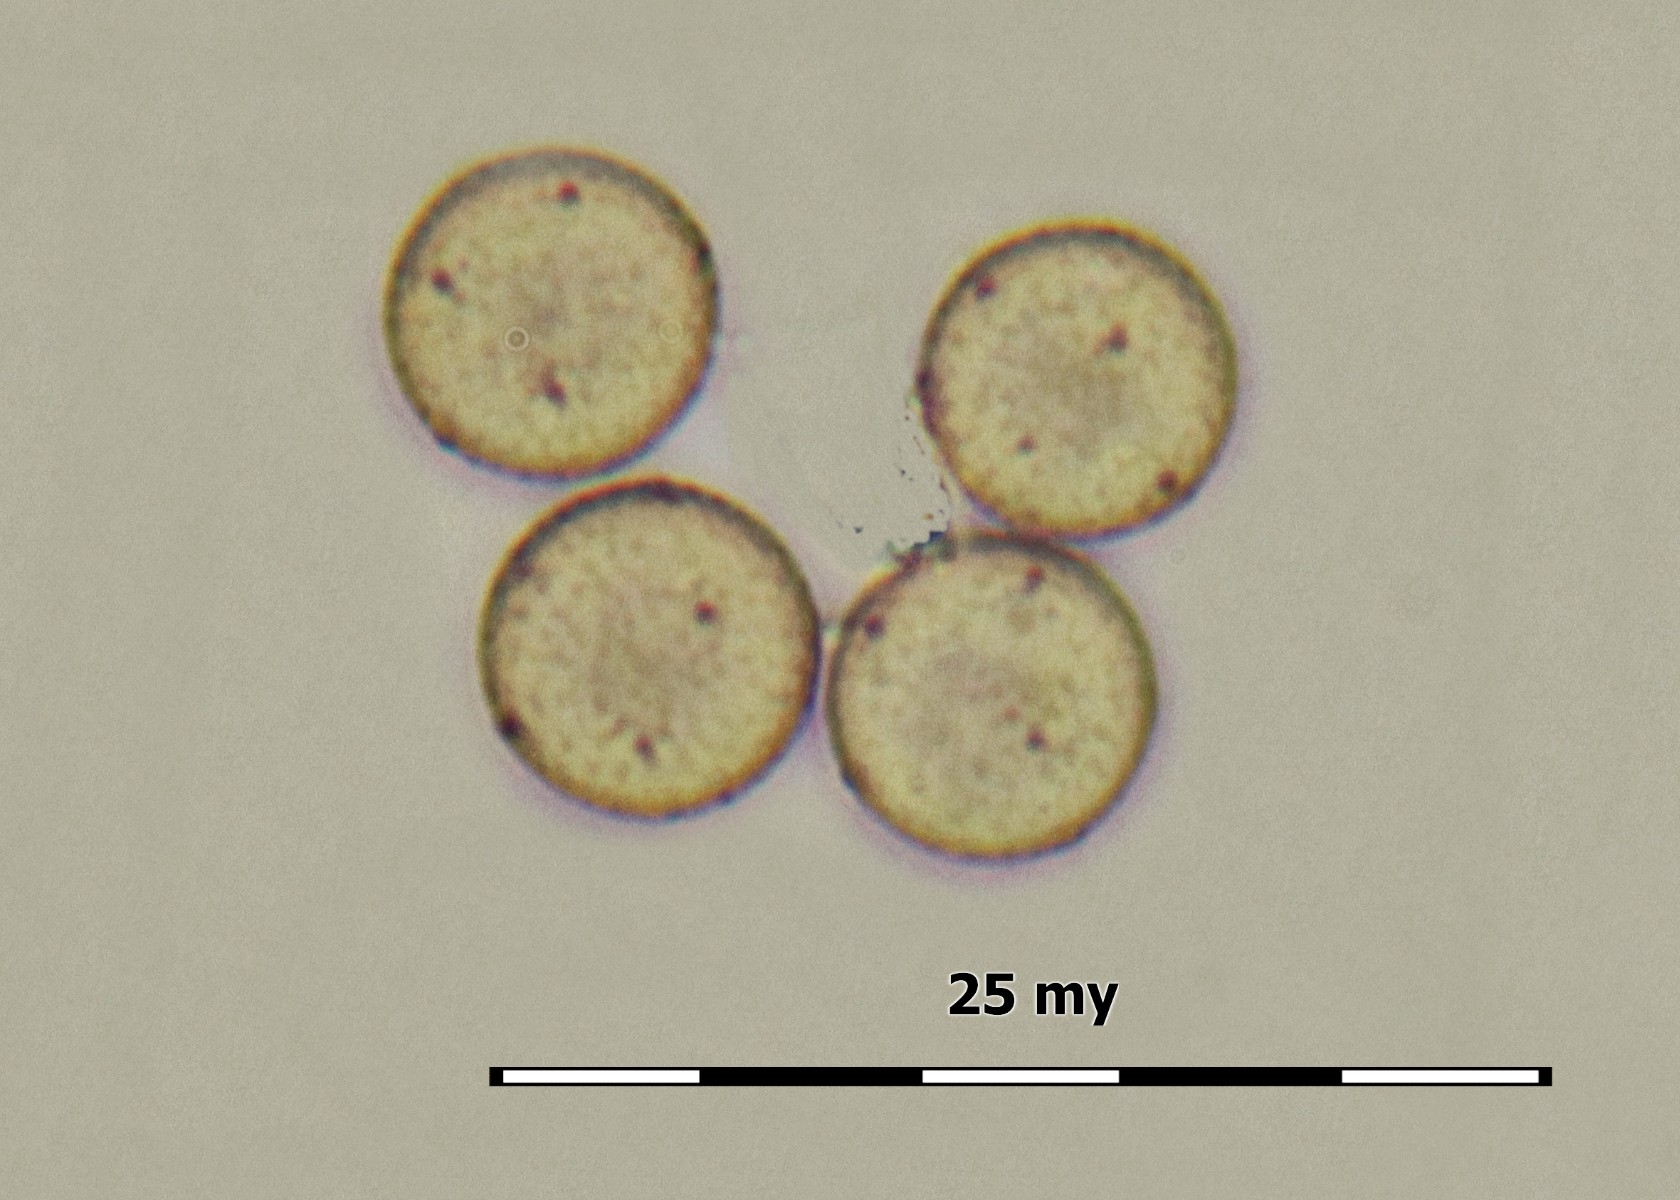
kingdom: Protozoa
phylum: Mycetozoa
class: Myxomycetes
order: Cribrariales
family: Cribrariaceae
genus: Cribraria
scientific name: Cribraria microcarpa
